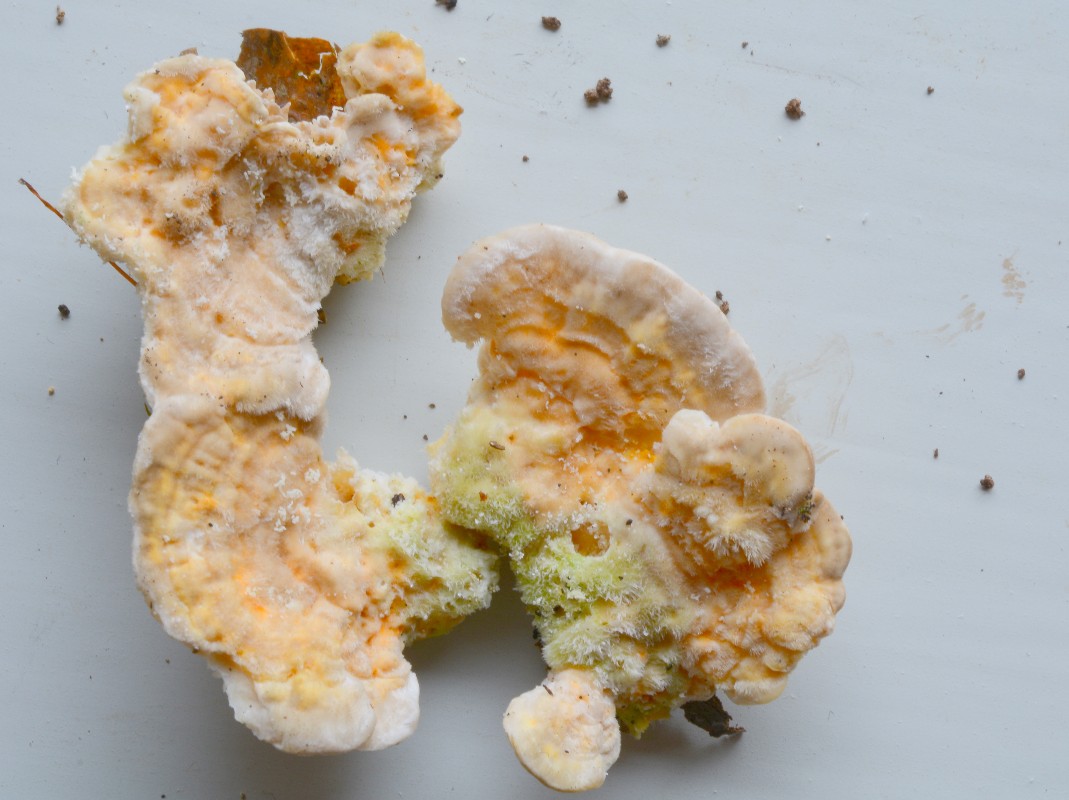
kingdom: Fungi
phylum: Basidiomycota
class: Agaricomycetes
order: Polyporales
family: Polyporaceae
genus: Lenzites
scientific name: Lenzites betulinus
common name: birke-læderporesvamp
